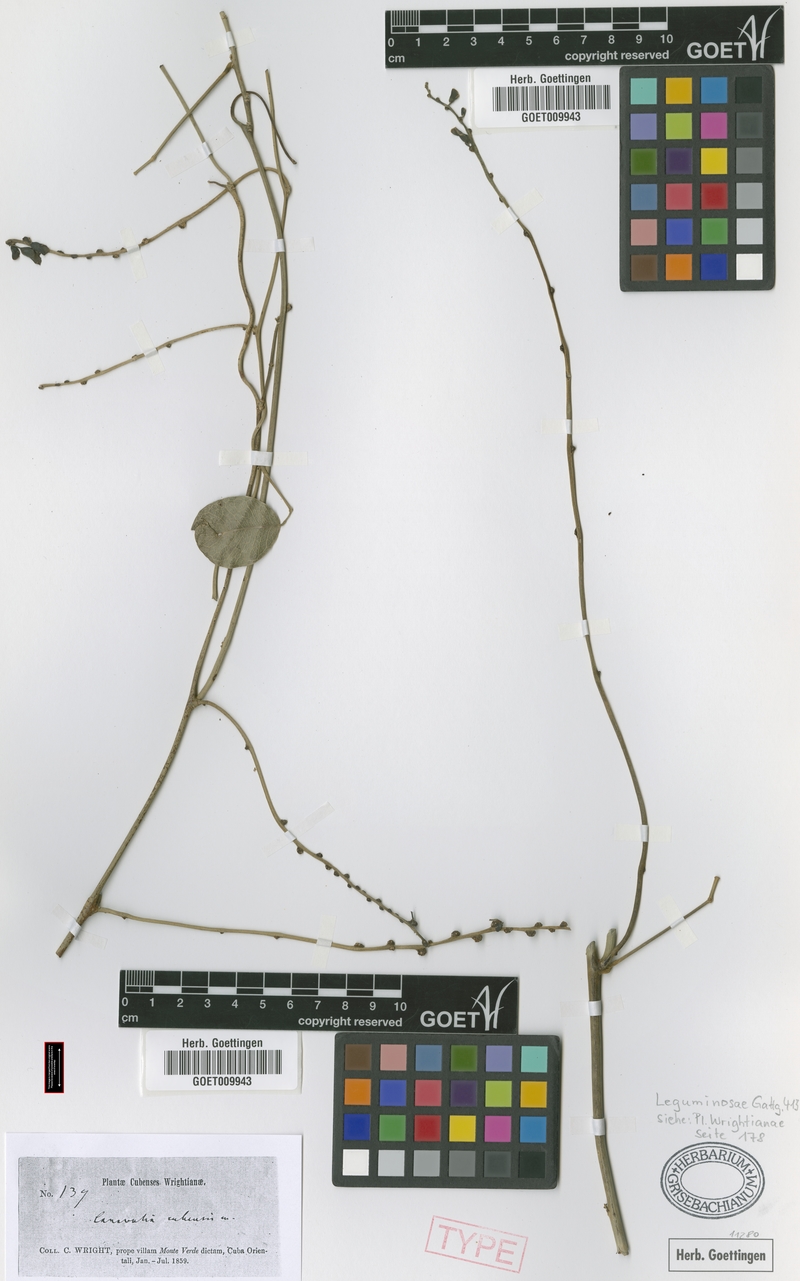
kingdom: Plantae
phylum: Tracheophyta
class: Magnoliopsida
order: Fabales
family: Fabaceae
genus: Canavalia
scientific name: Canavalia nitida
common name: Cathie's-bean
